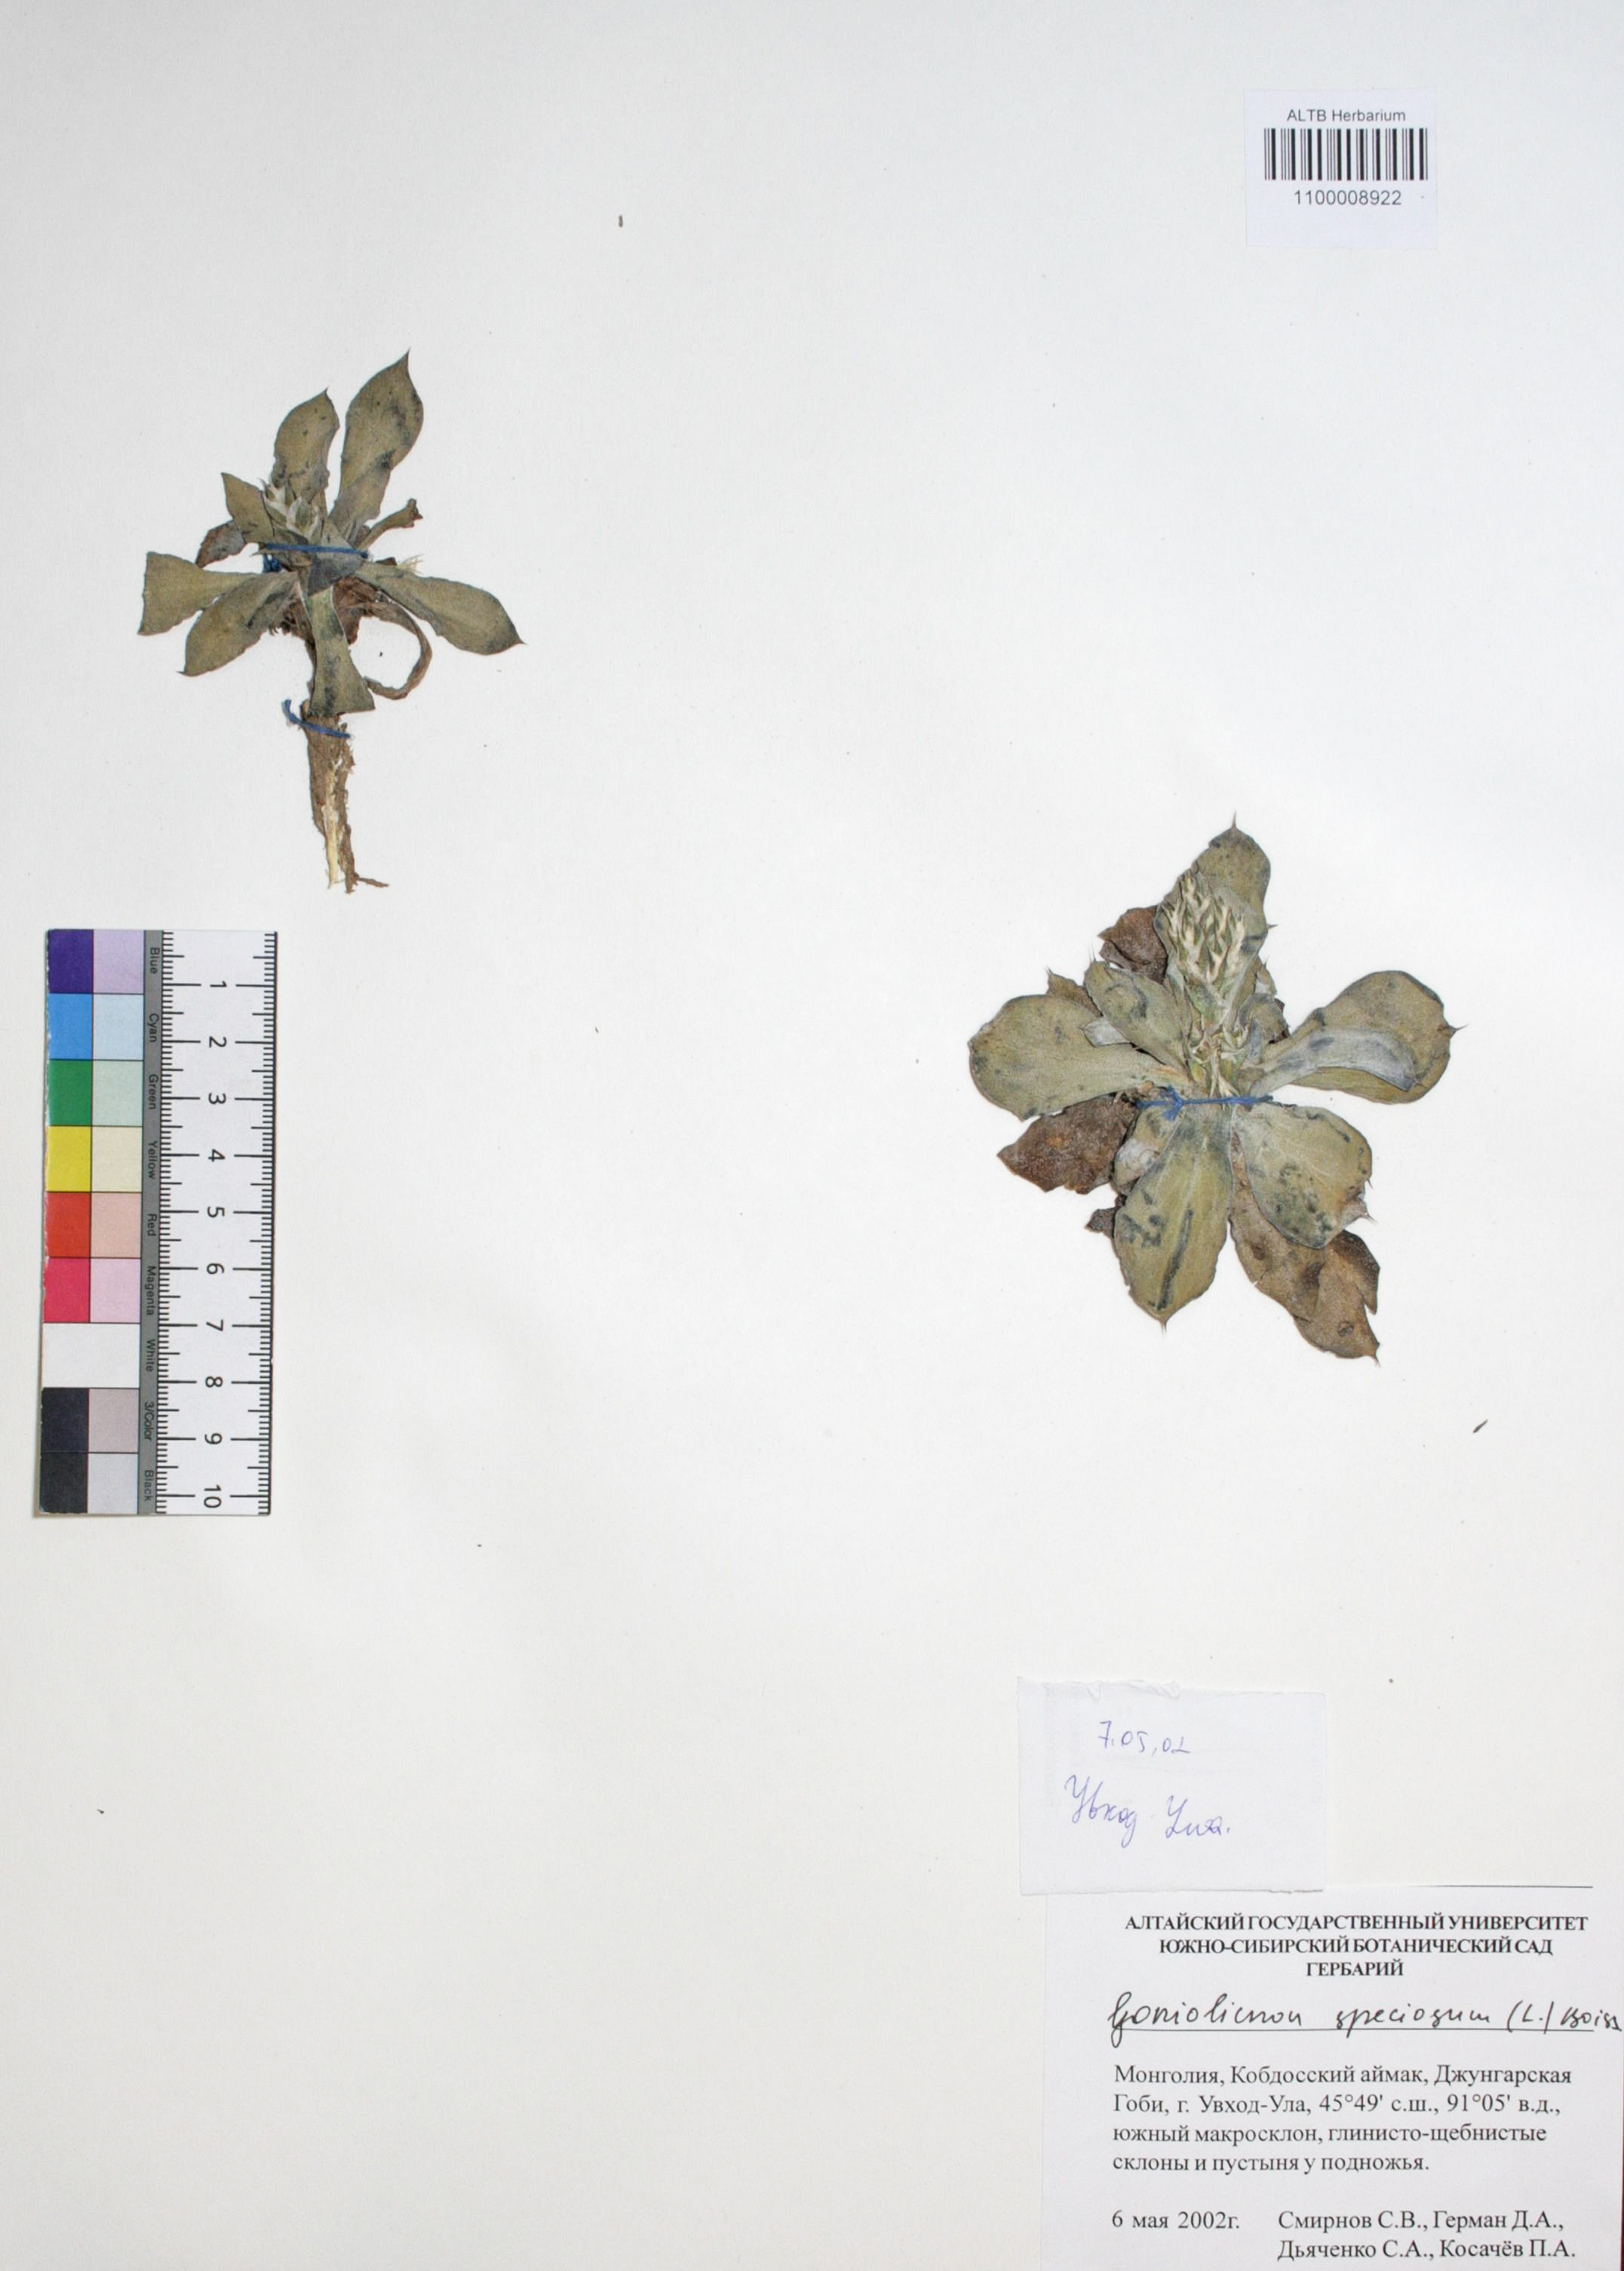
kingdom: Plantae
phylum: Tracheophyta
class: Magnoliopsida
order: Caryophyllales
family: Plumbaginaceae
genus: Goniolimon
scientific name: Goniolimon speciosum
